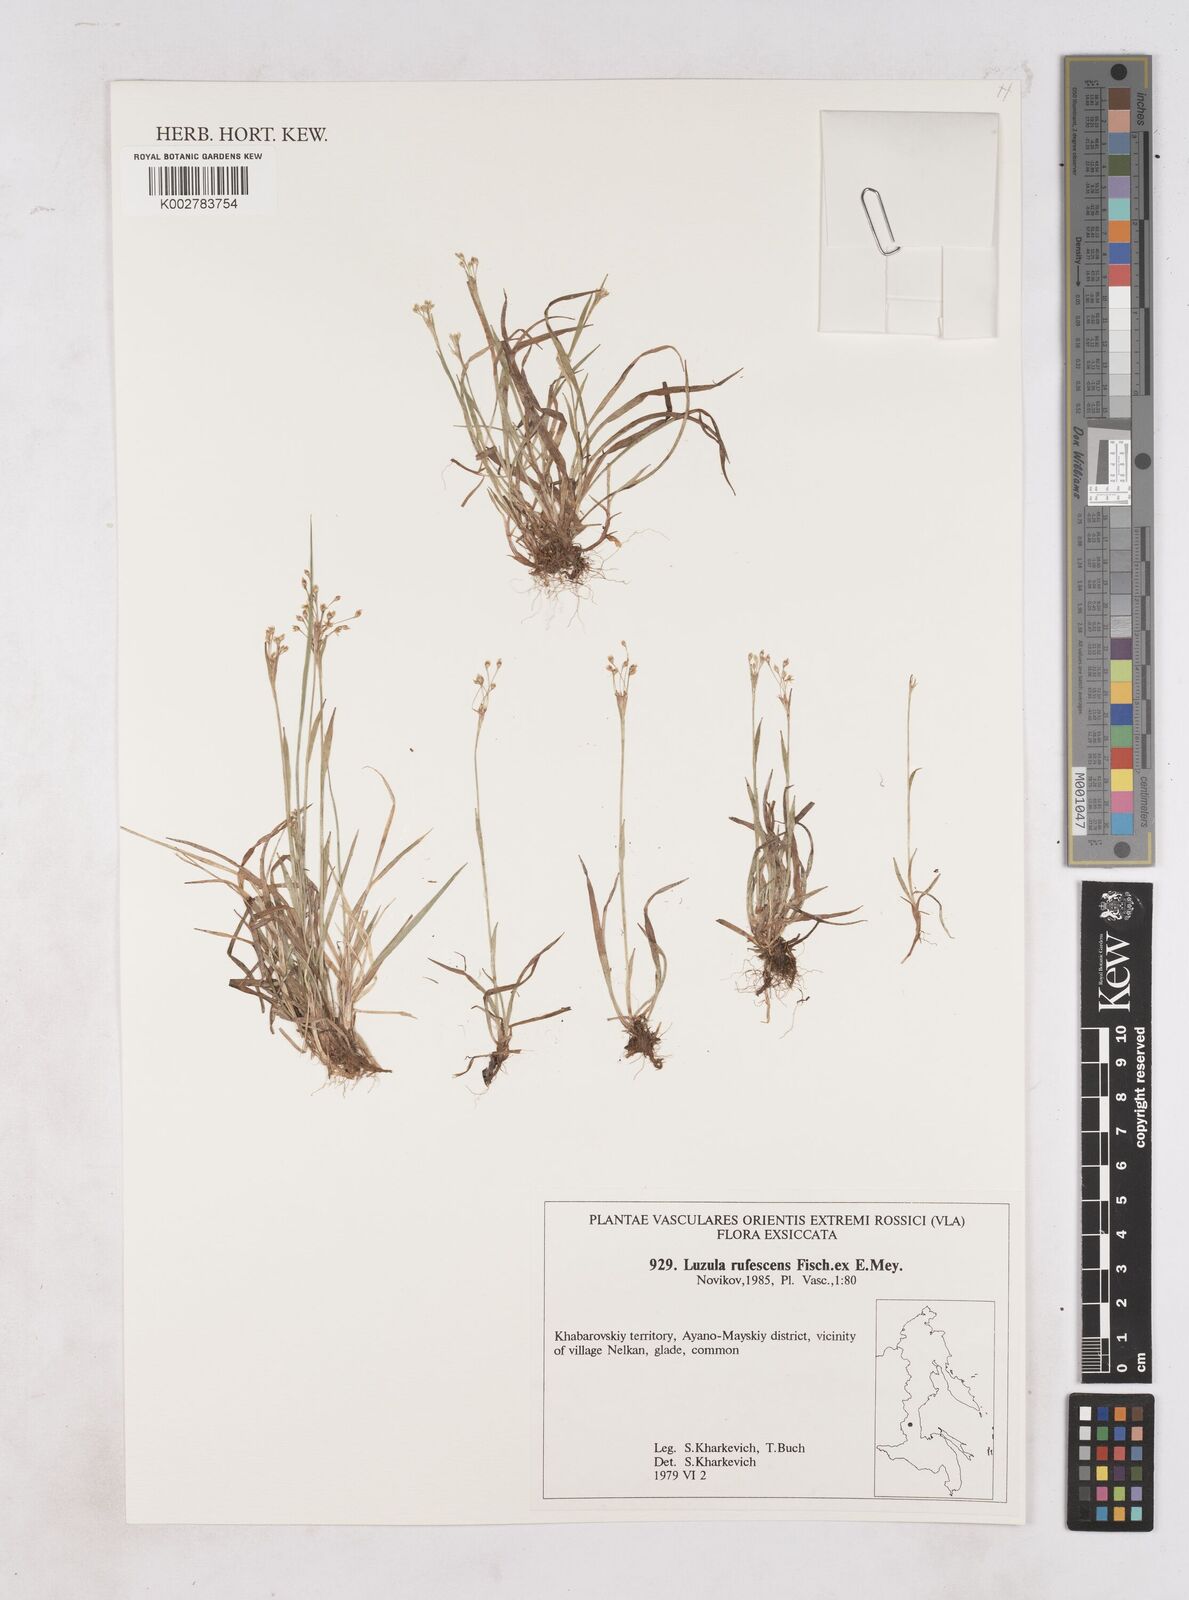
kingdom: Plantae
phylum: Tracheophyta
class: Liliopsida
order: Poales
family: Juncaceae
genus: Luzula
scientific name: Luzula rufescens
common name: Reddish woodrush
